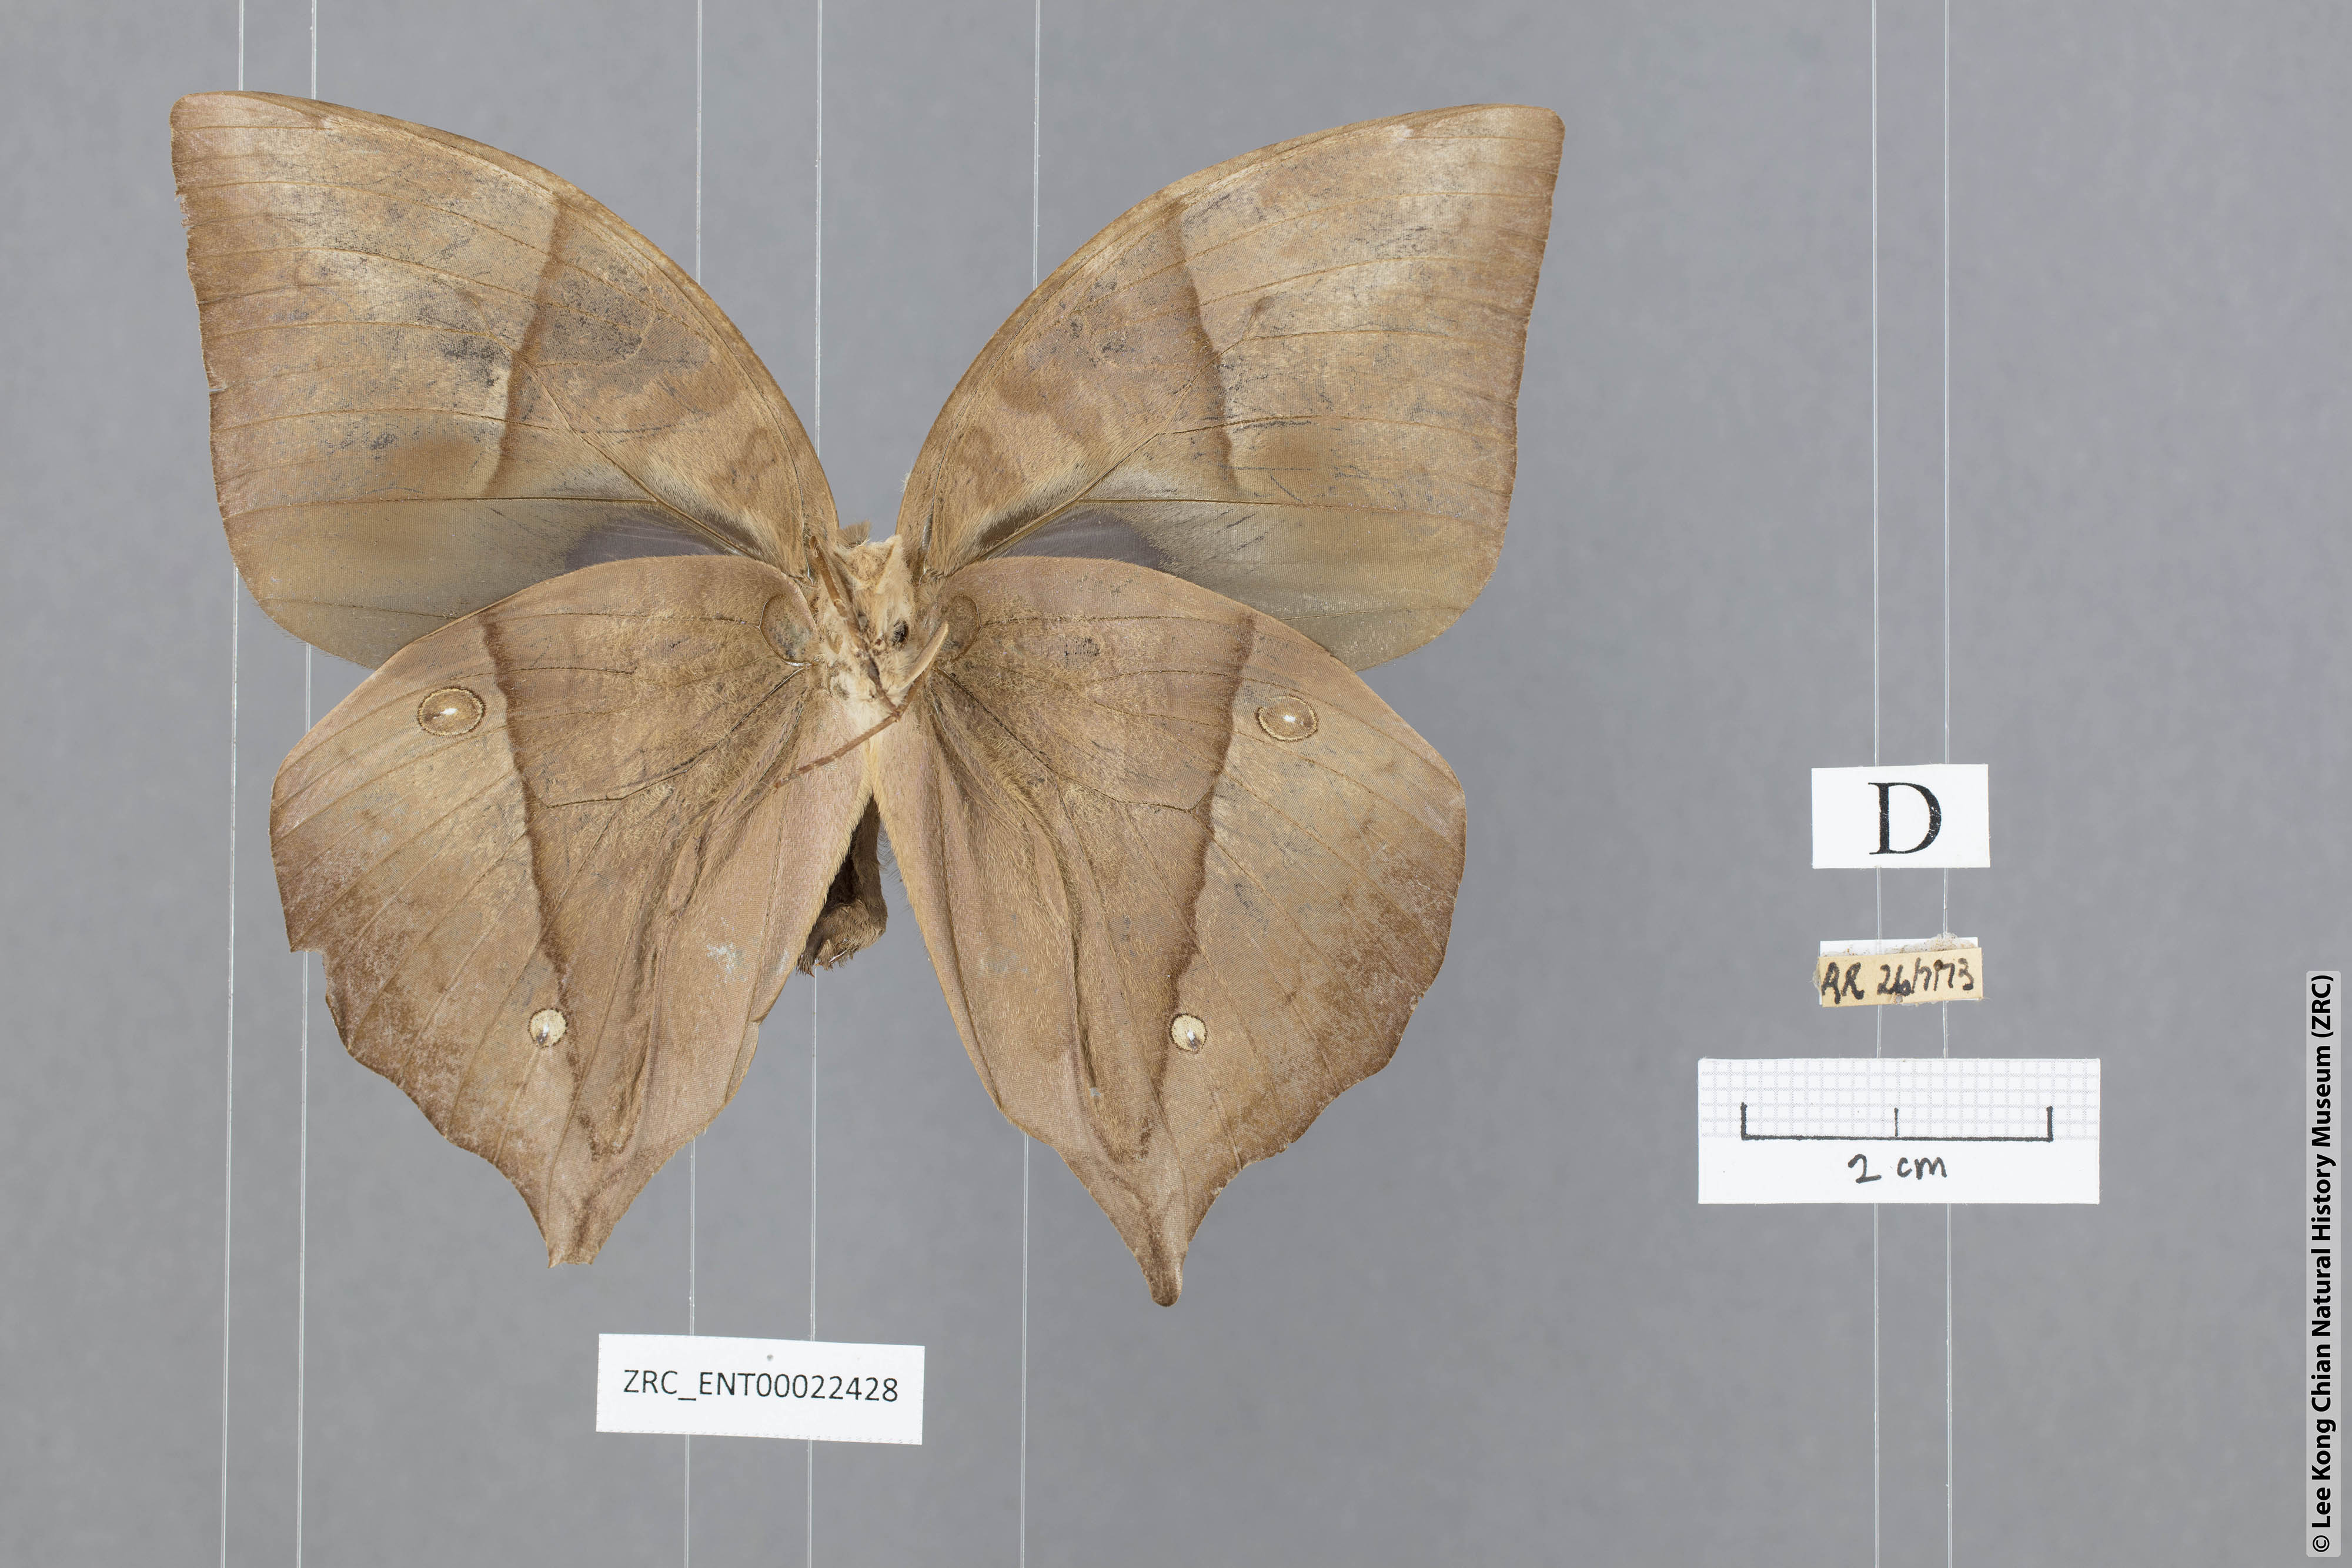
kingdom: Animalia
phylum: Arthropoda
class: Insecta
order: Lepidoptera
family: Nymphalidae
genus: Zeuxidia
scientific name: Zeuxidia doubledaii
